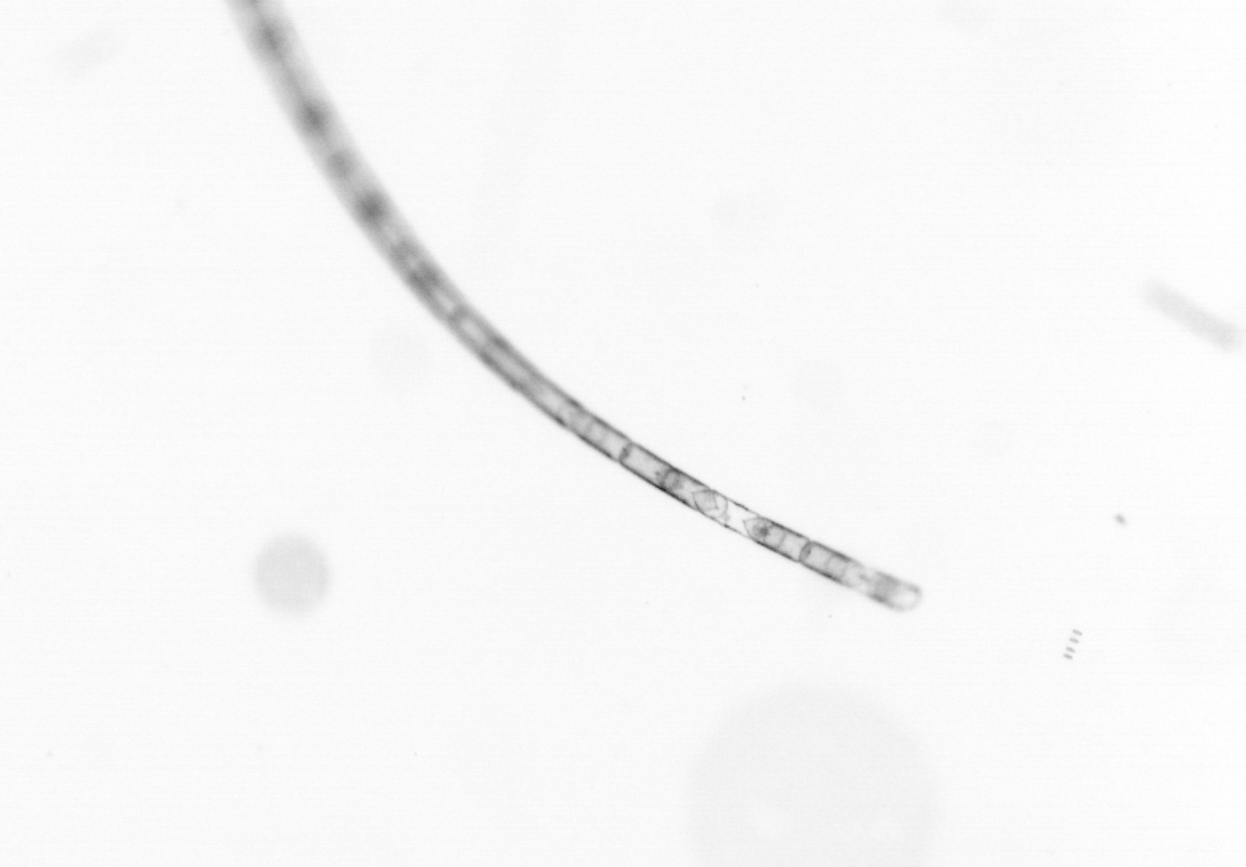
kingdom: Chromista
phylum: Ochrophyta
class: Bacillariophyceae
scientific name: Bacillariophyceae
